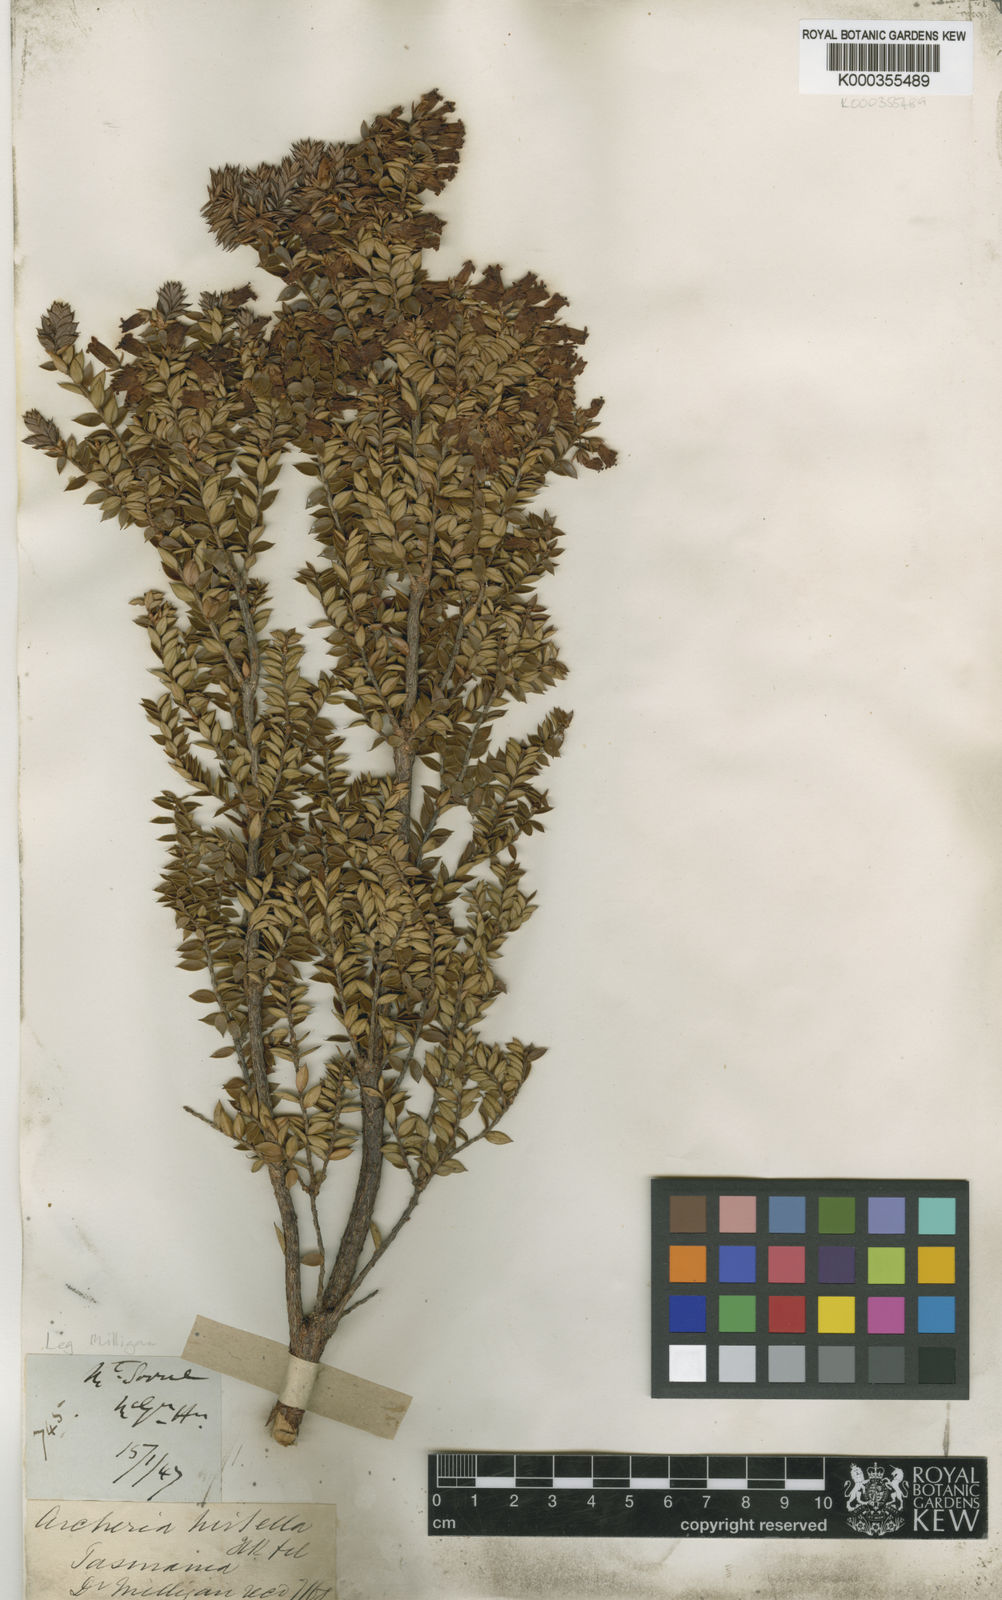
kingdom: Plantae
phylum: Tracheophyta
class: Magnoliopsida
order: Ericales
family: Ericaceae
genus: Archeria
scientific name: Archeria hirtella
